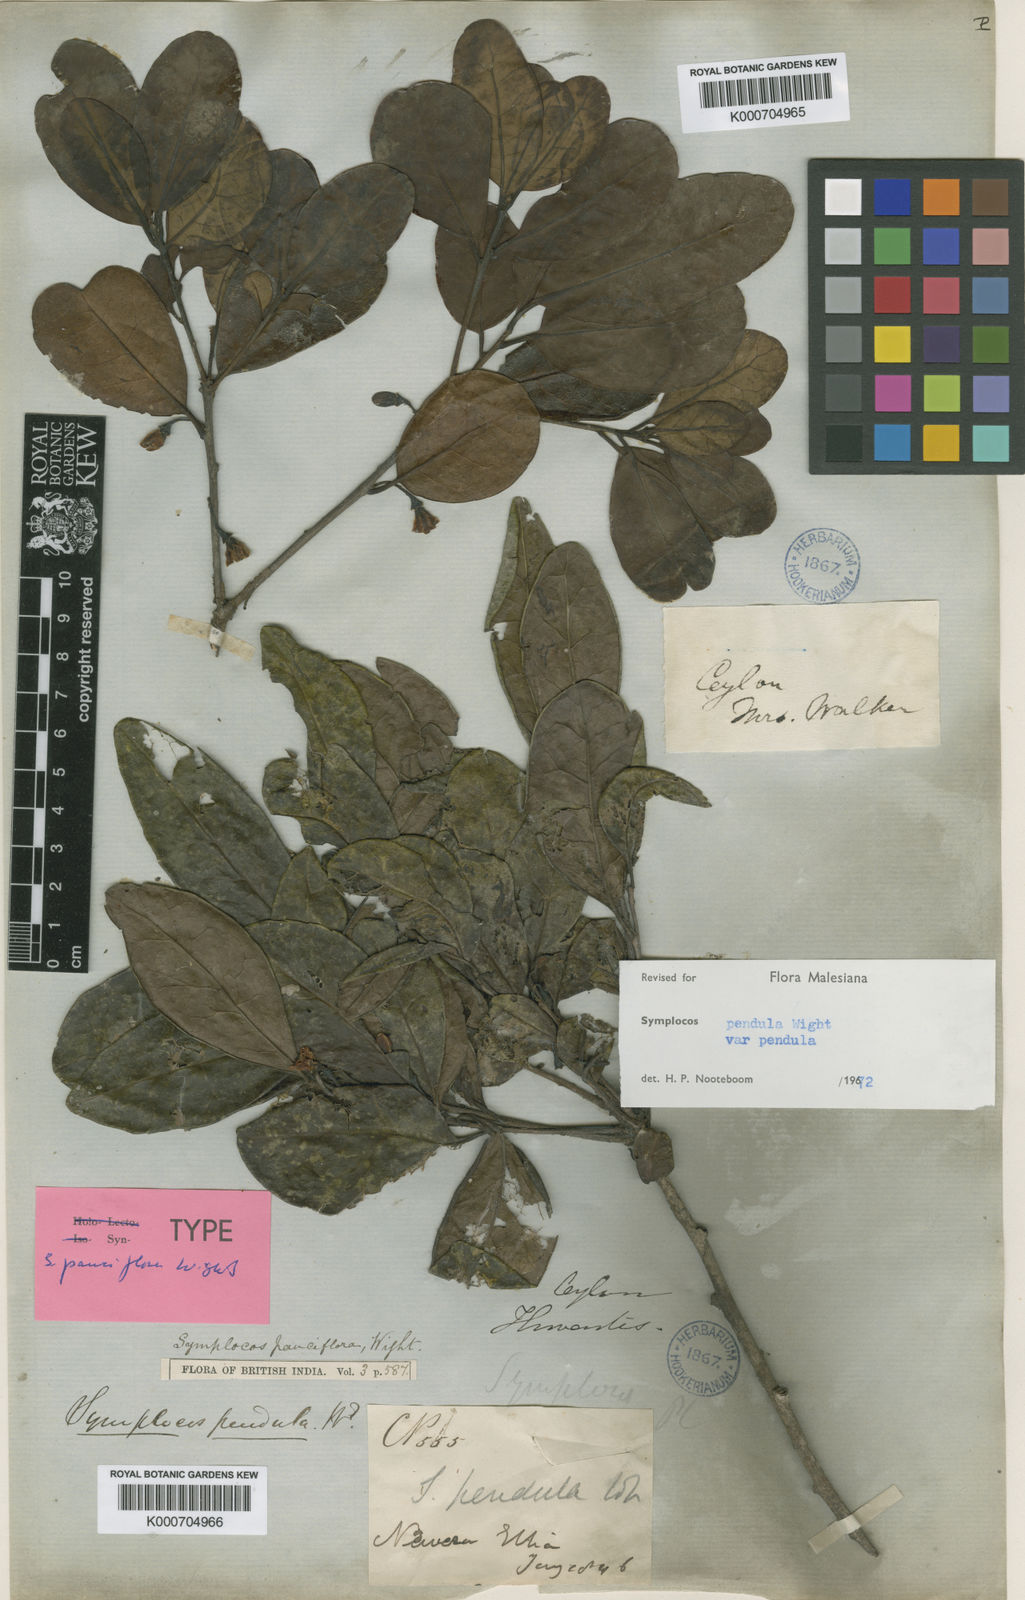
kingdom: Plantae
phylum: Tracheophyta
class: Magnoliopsida
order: Ericales
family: Symplocaceae
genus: Symplocos
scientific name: Symplocos pendula
